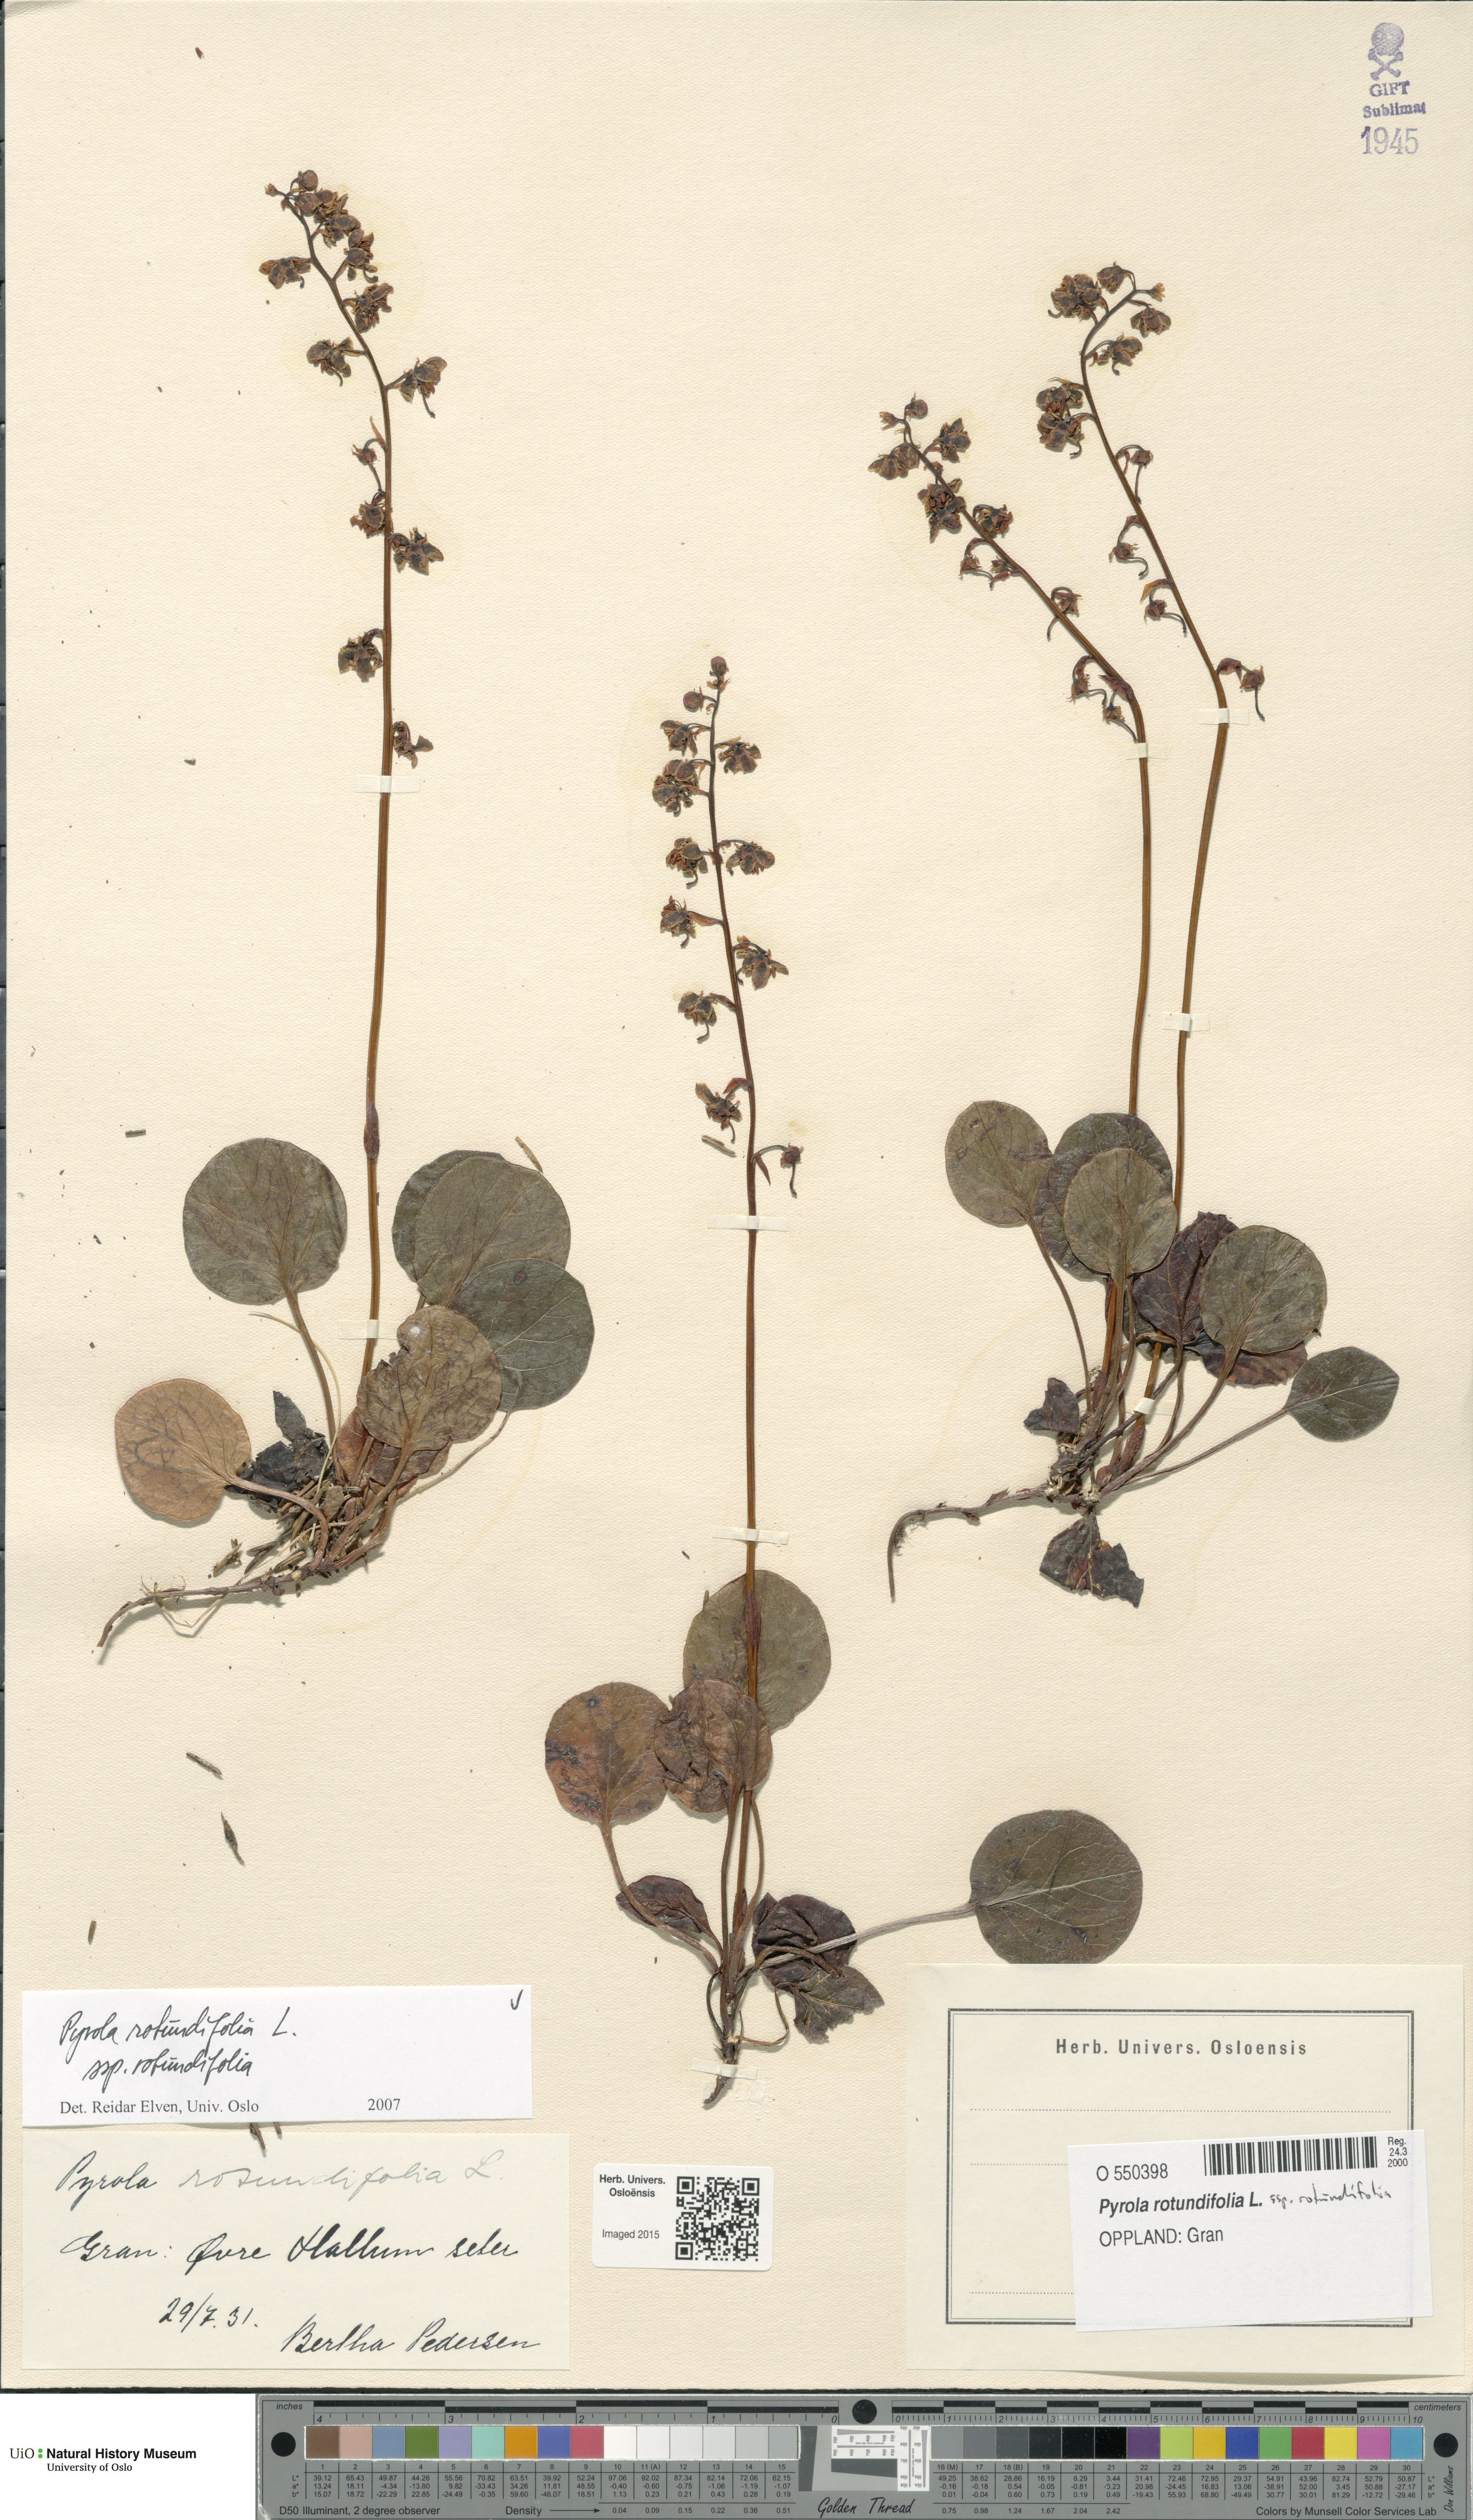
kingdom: Plantae
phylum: Tracheophyta
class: Magnoliopsida
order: Ericales
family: Ericaceae
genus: Pyrola
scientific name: Pyrola rotundifolia
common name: Round-leaved wintergreen
